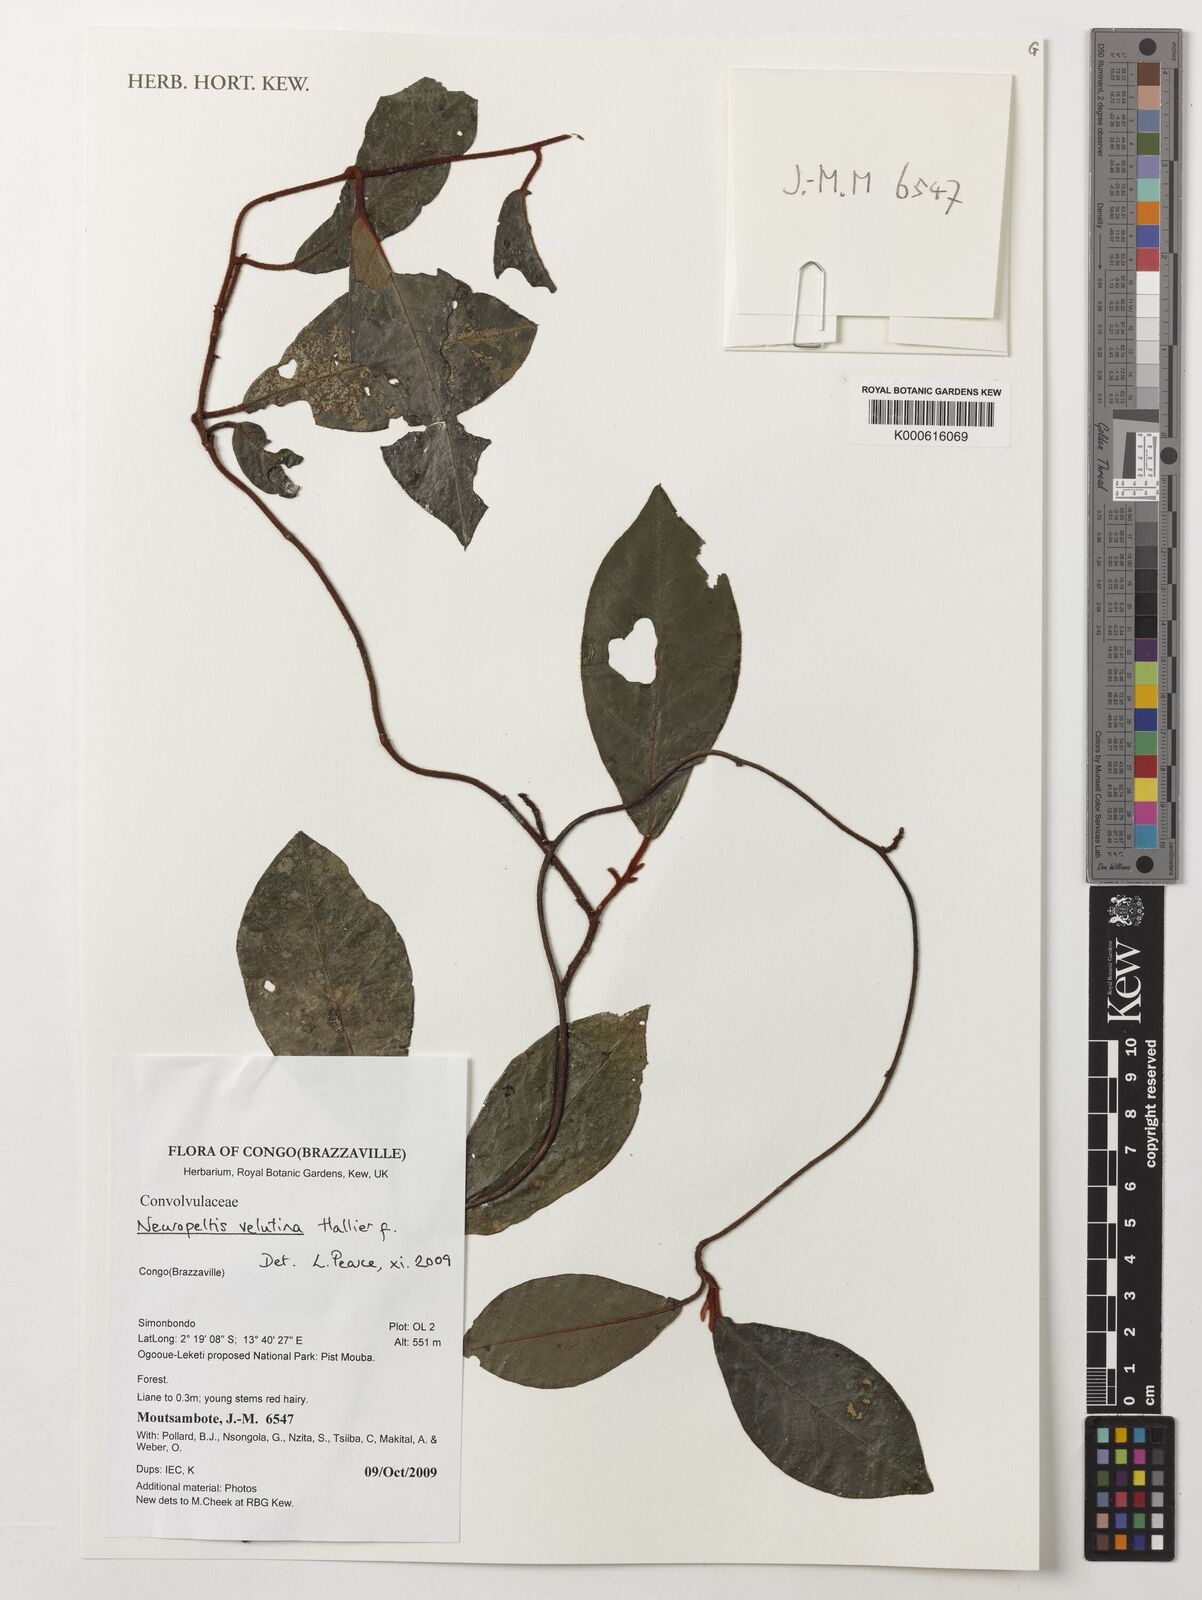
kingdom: Plantae
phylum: Tracheophyta
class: Magnoliopsida
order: Solanales
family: Convolvulaceae
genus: Neuropeltis
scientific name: Neuropeltis velutina
